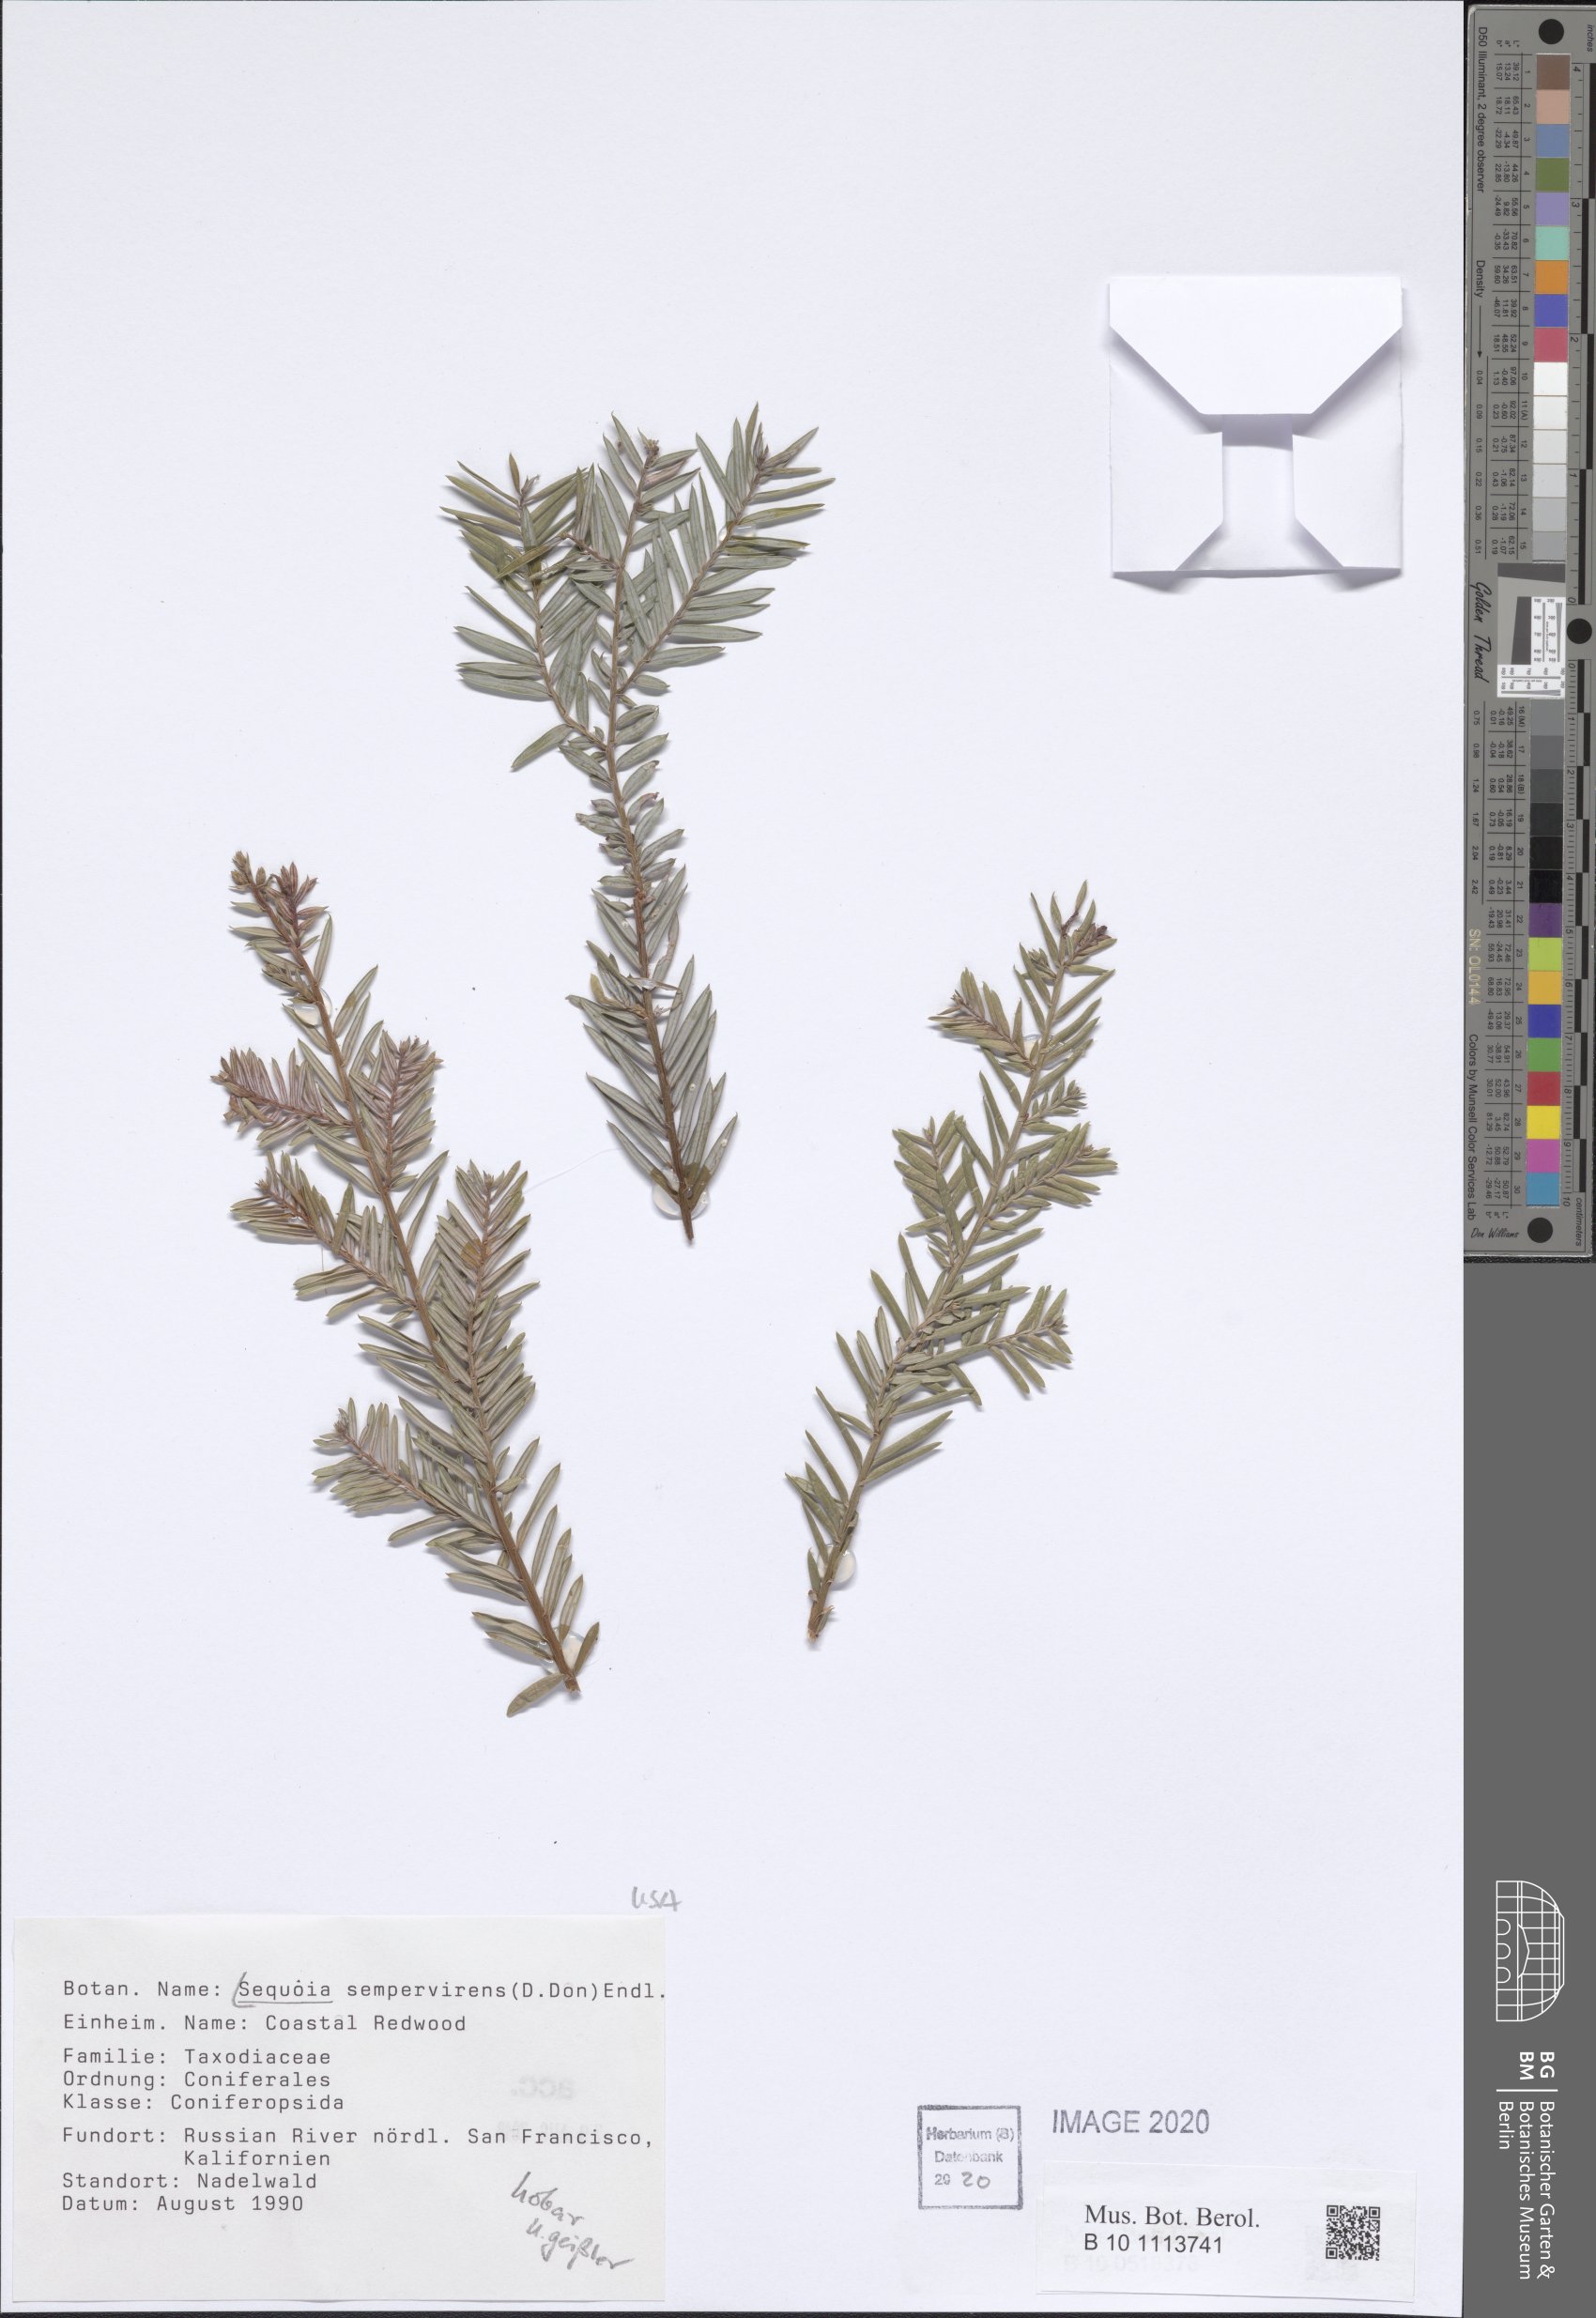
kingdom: Plantae
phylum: Tracheophyta
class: Pinopsida
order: Pinales
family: Cupressaceae
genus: Sequoia
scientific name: Sequoia sempervirens
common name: Coast redwood
